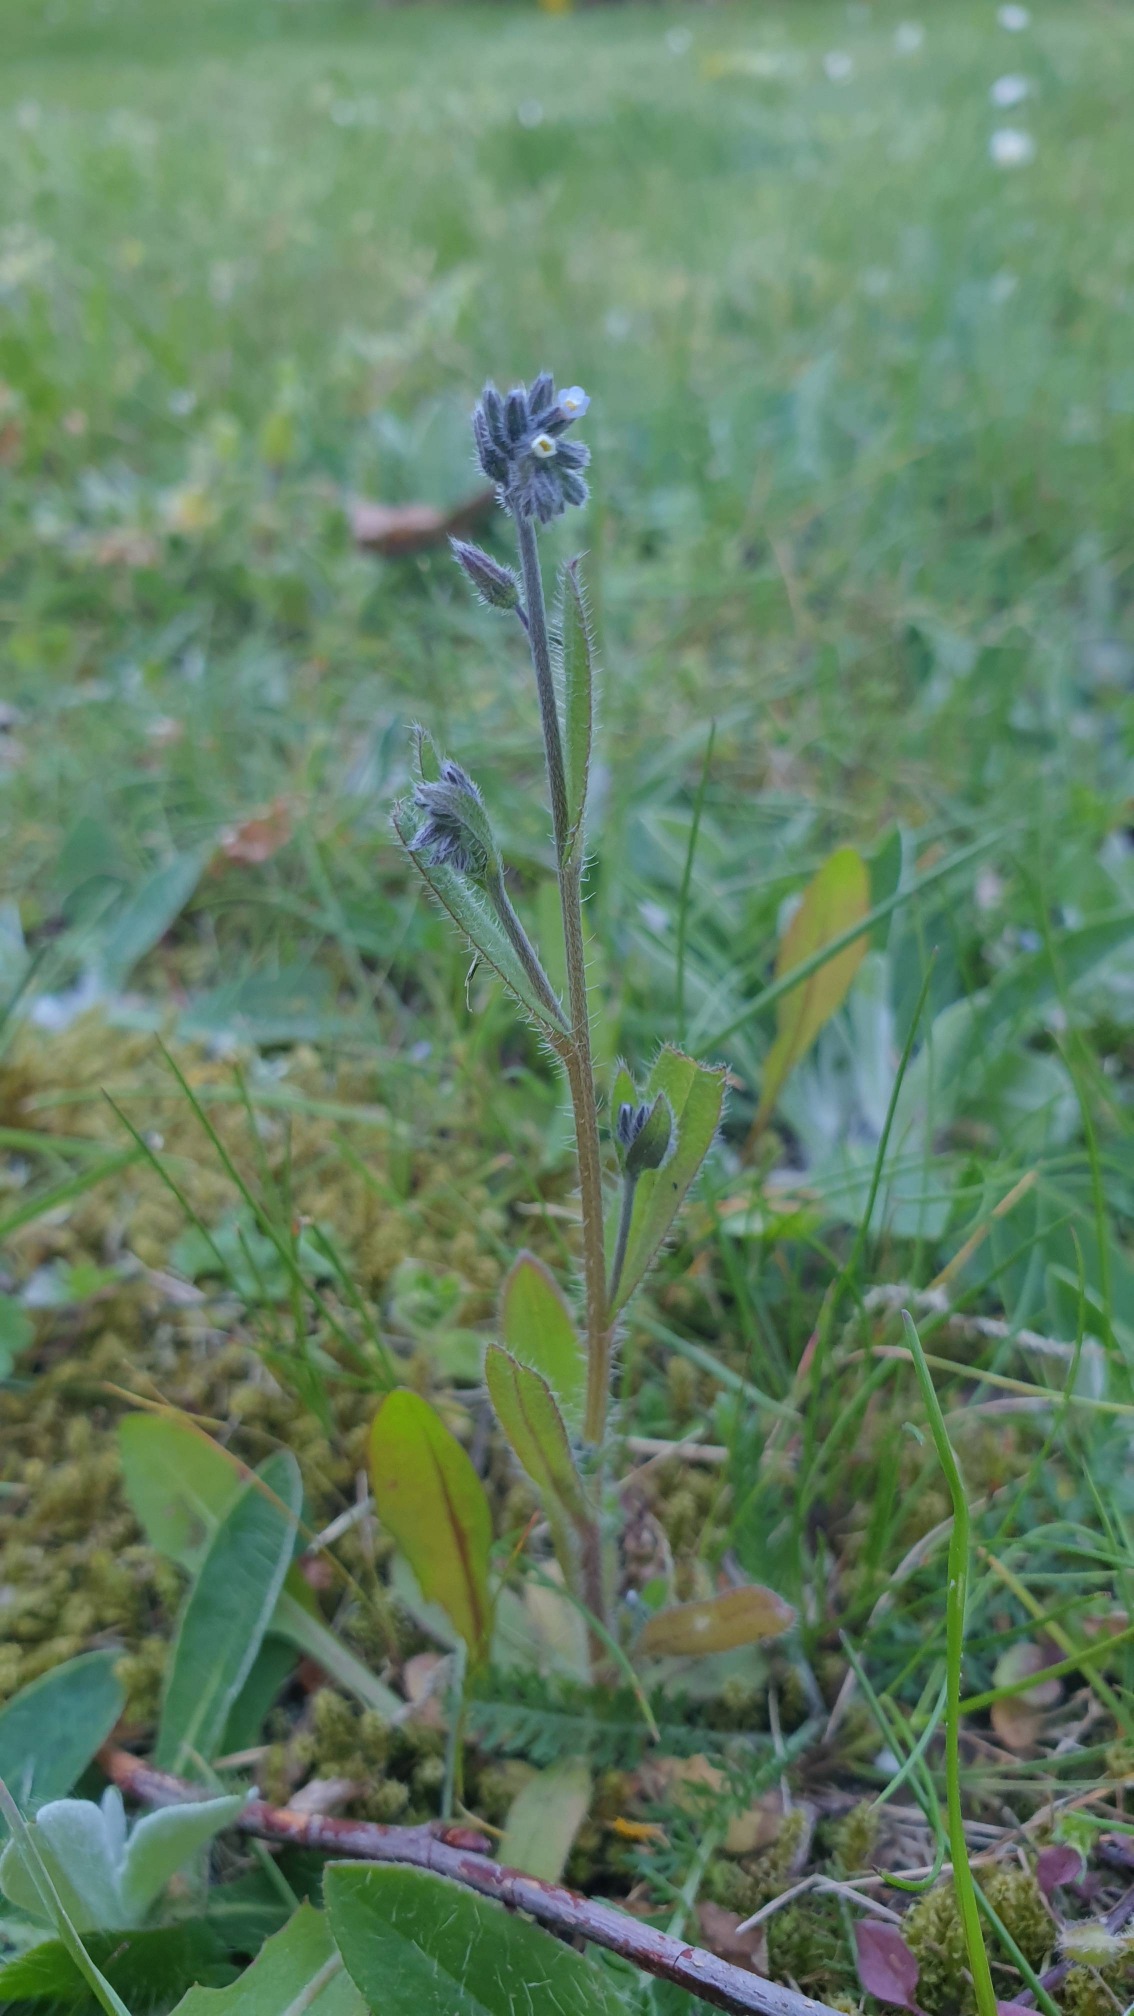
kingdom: Plantae
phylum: Tracheophyta
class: Magnoliopsida
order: Boraginales
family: Boraginaceae
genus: Myosotis
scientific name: Myosotis discolor
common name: Forskelligfarvet forglemmigej
